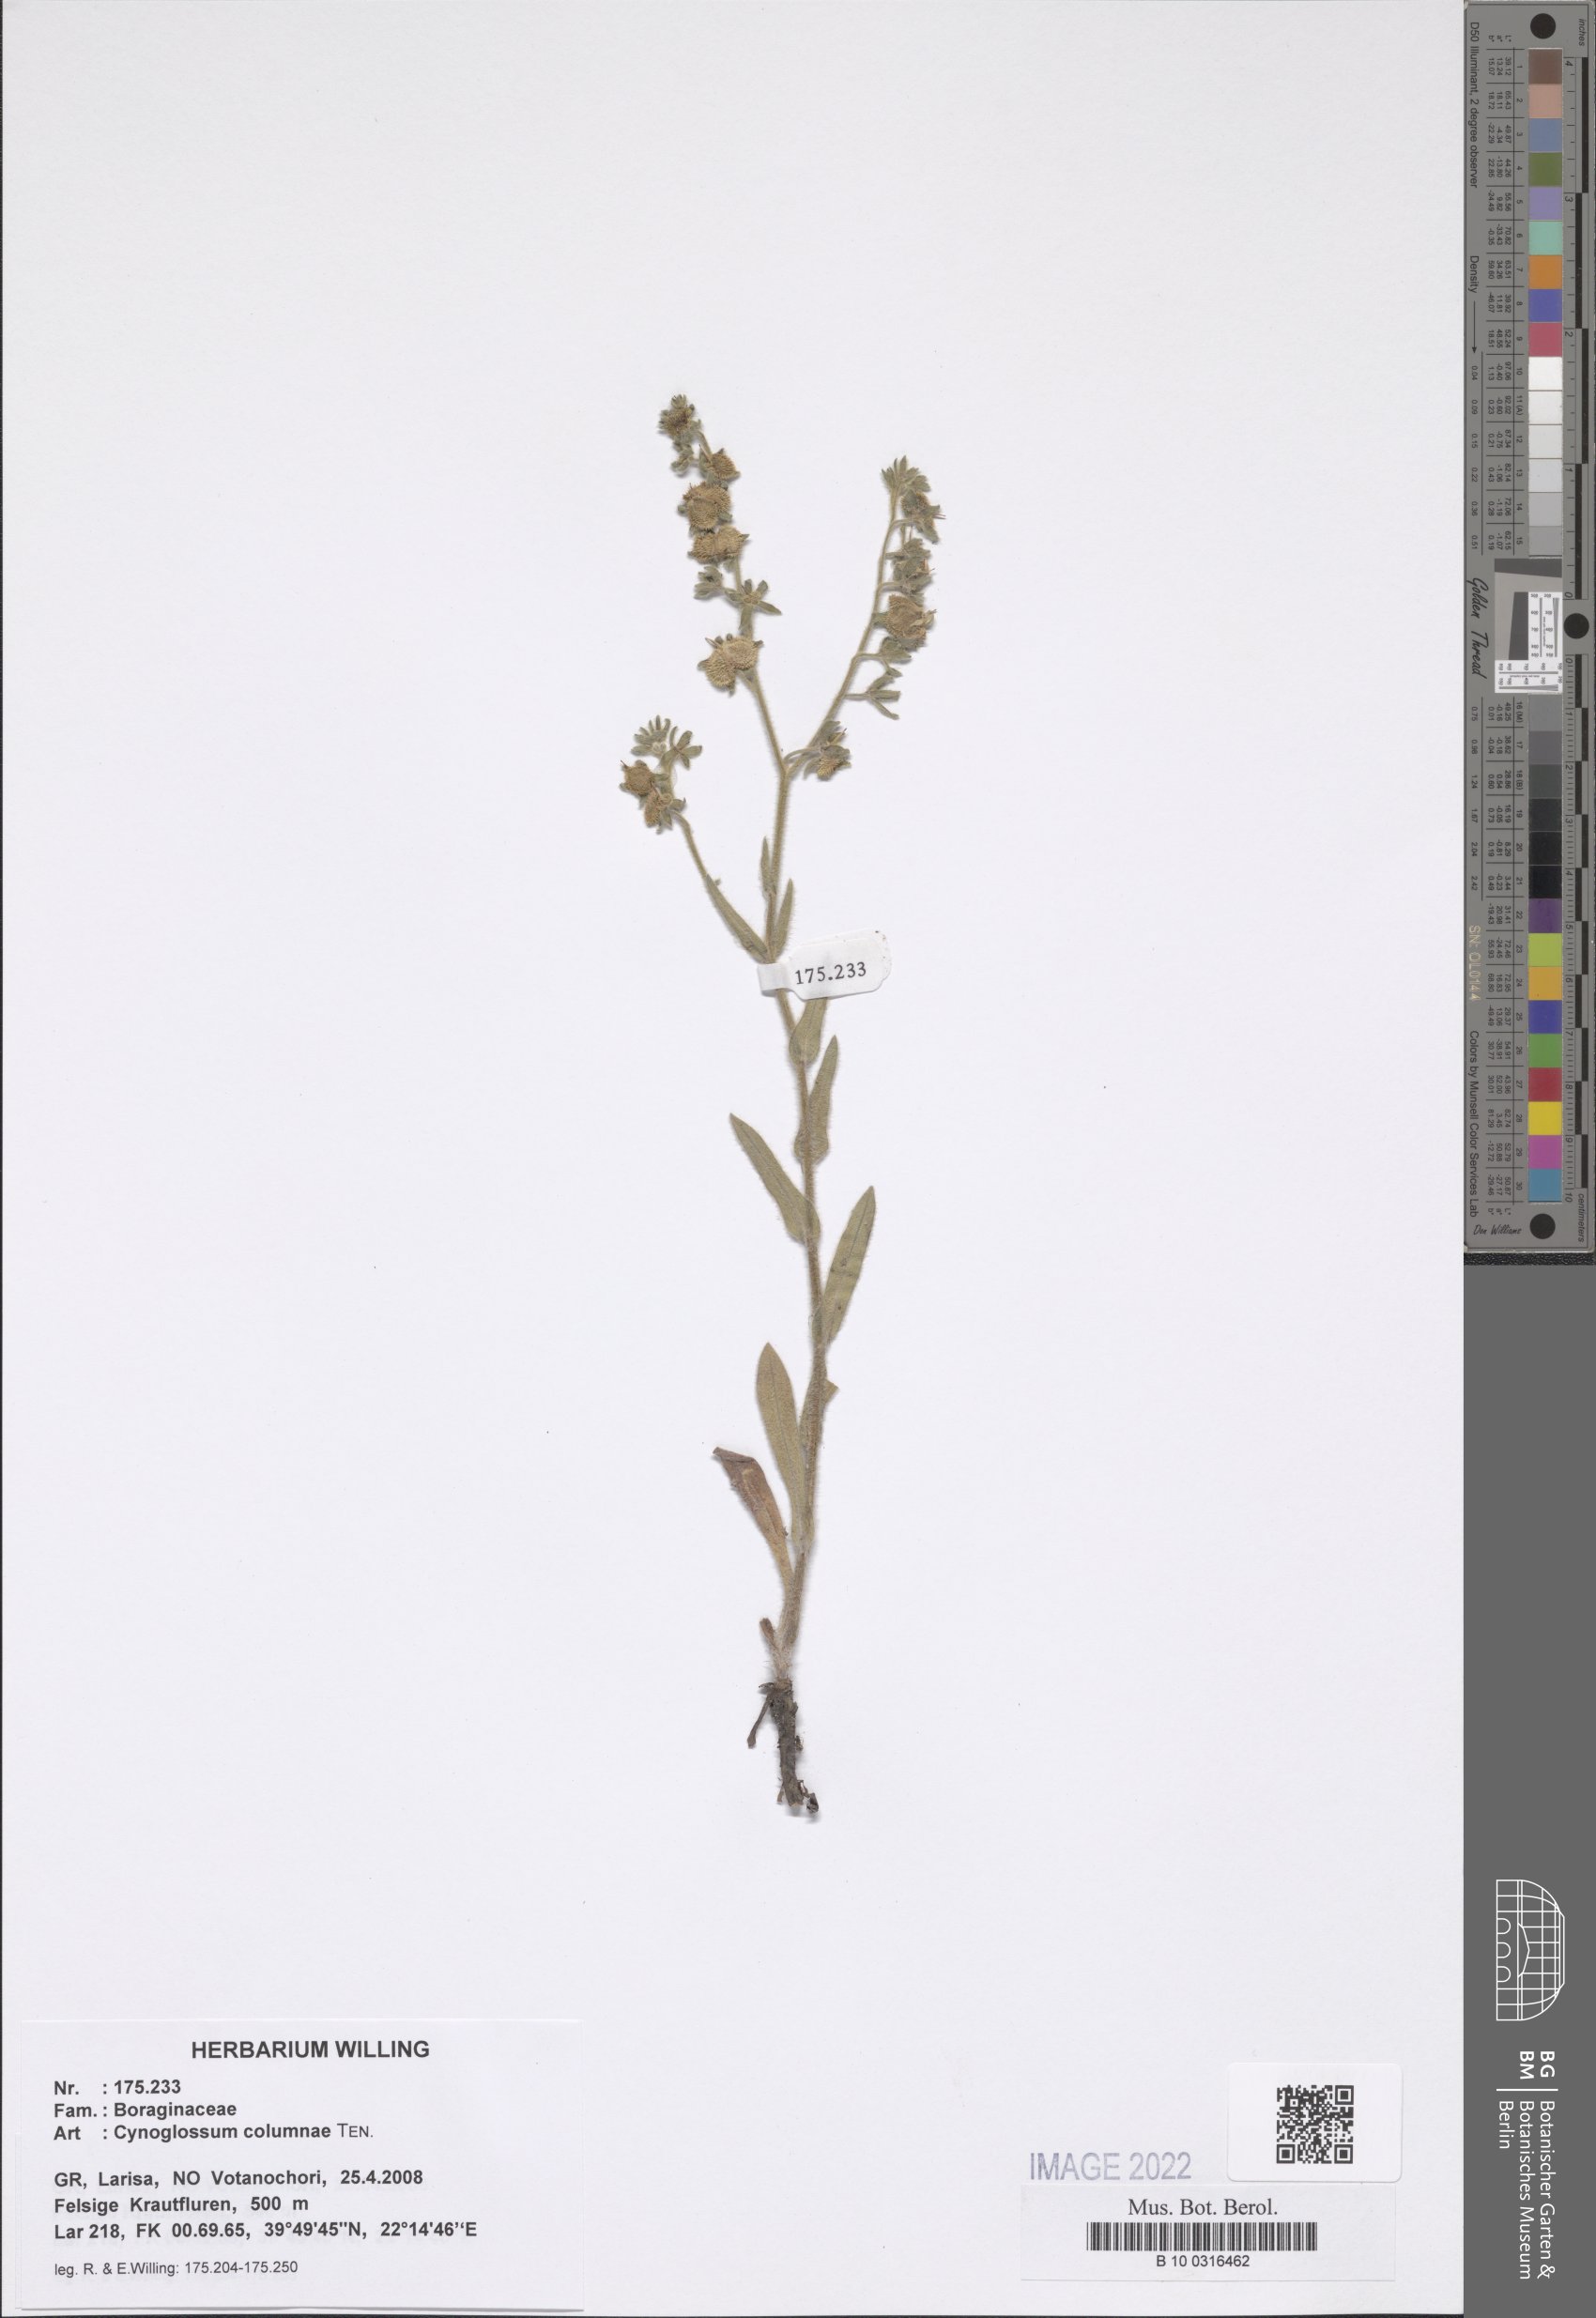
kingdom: Plantae
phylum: Tracheophyta
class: Magnoliopsida
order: Boraginales
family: Boraginaceae
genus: Rindera
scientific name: Rindera columnae
